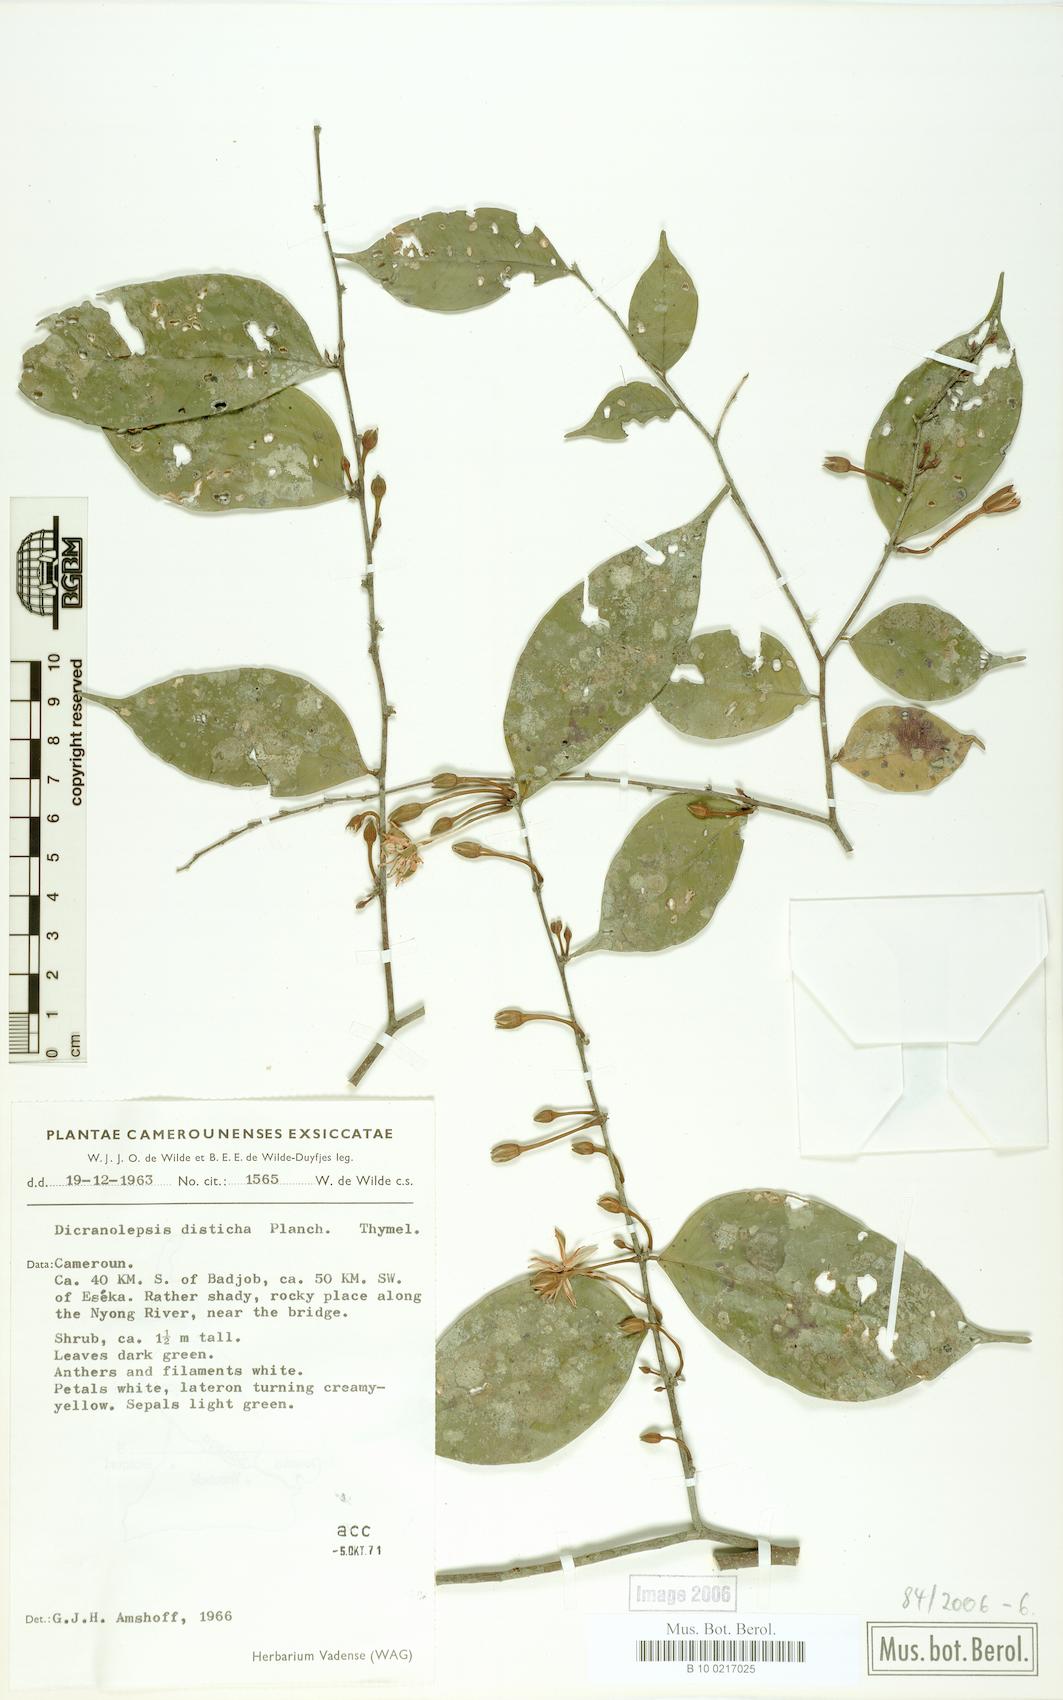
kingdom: Plantae
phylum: Tracheophyta
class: Magnoliopsida
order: Malvales
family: Thymelaeaceae
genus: Dicranolepis
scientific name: Dicranolepis disticha
